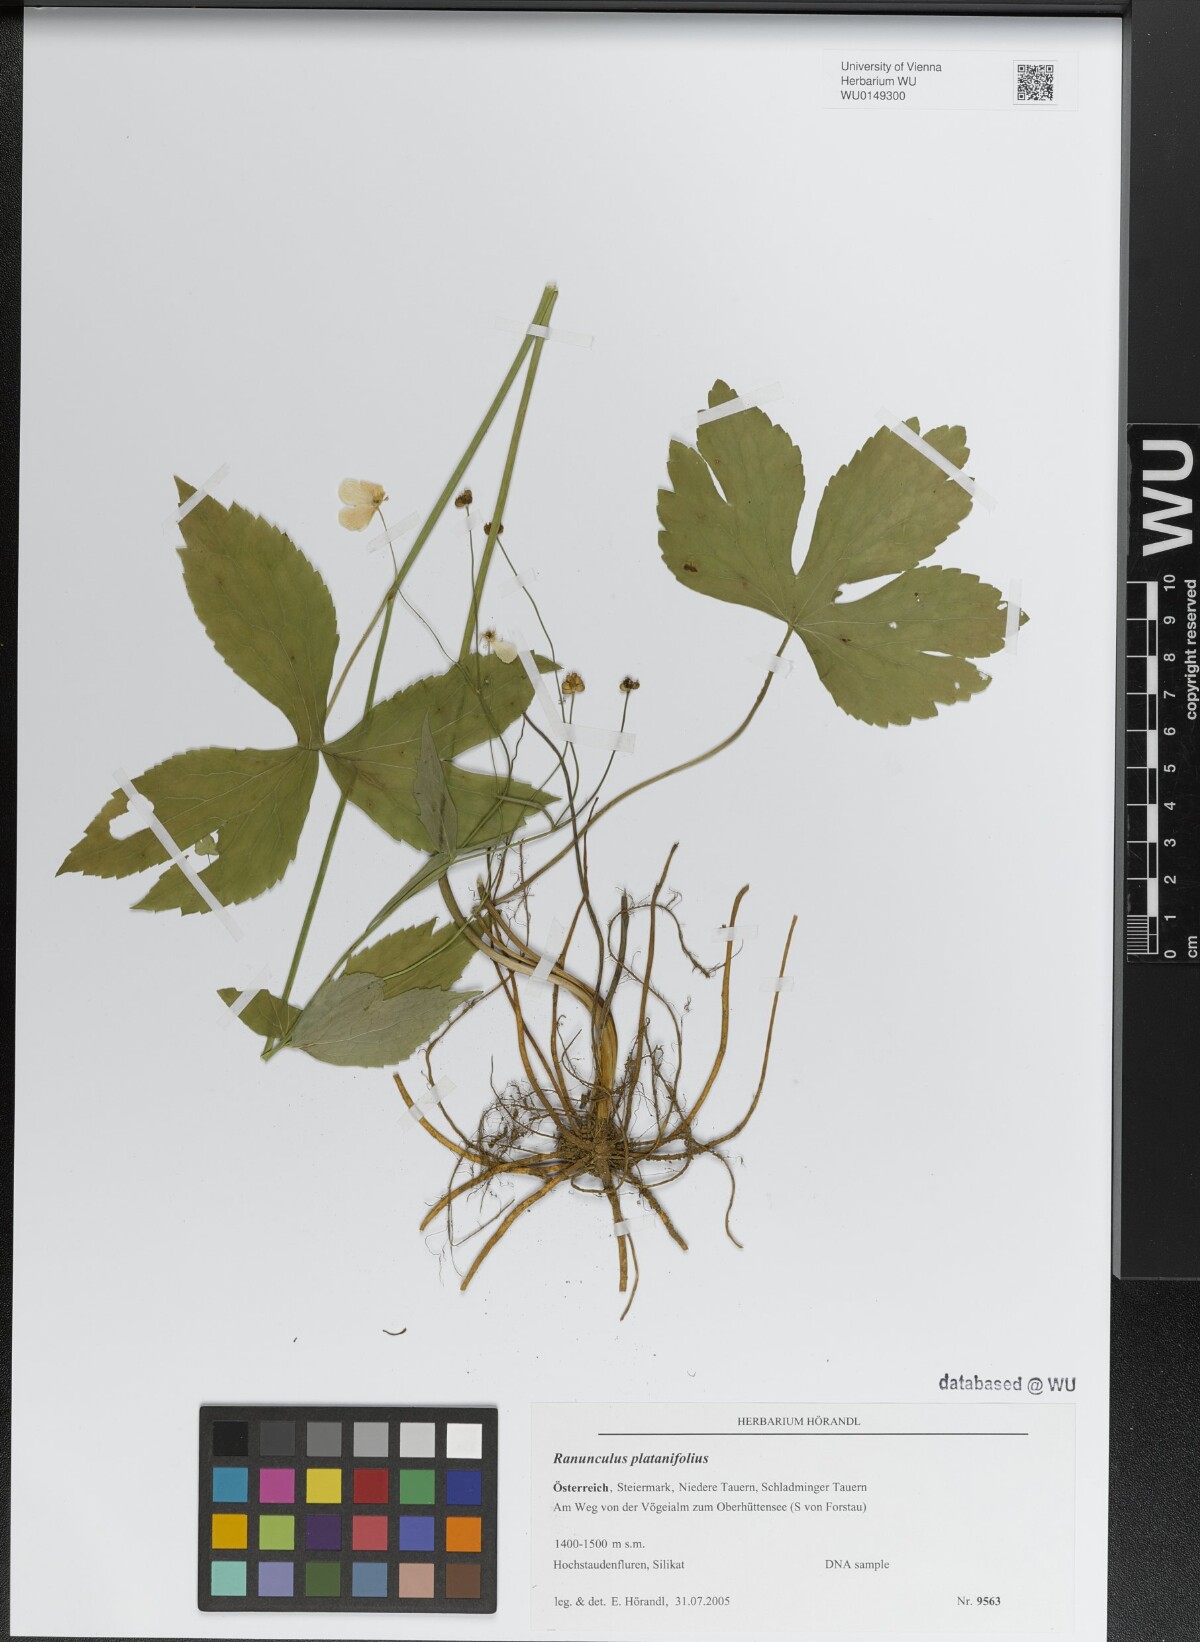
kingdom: Plantae
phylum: Tracheophyta
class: Magnoliopsida
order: Ranunculales
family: Ranunculaceae
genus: Ranunculus
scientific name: Ranunculus platanifolius
